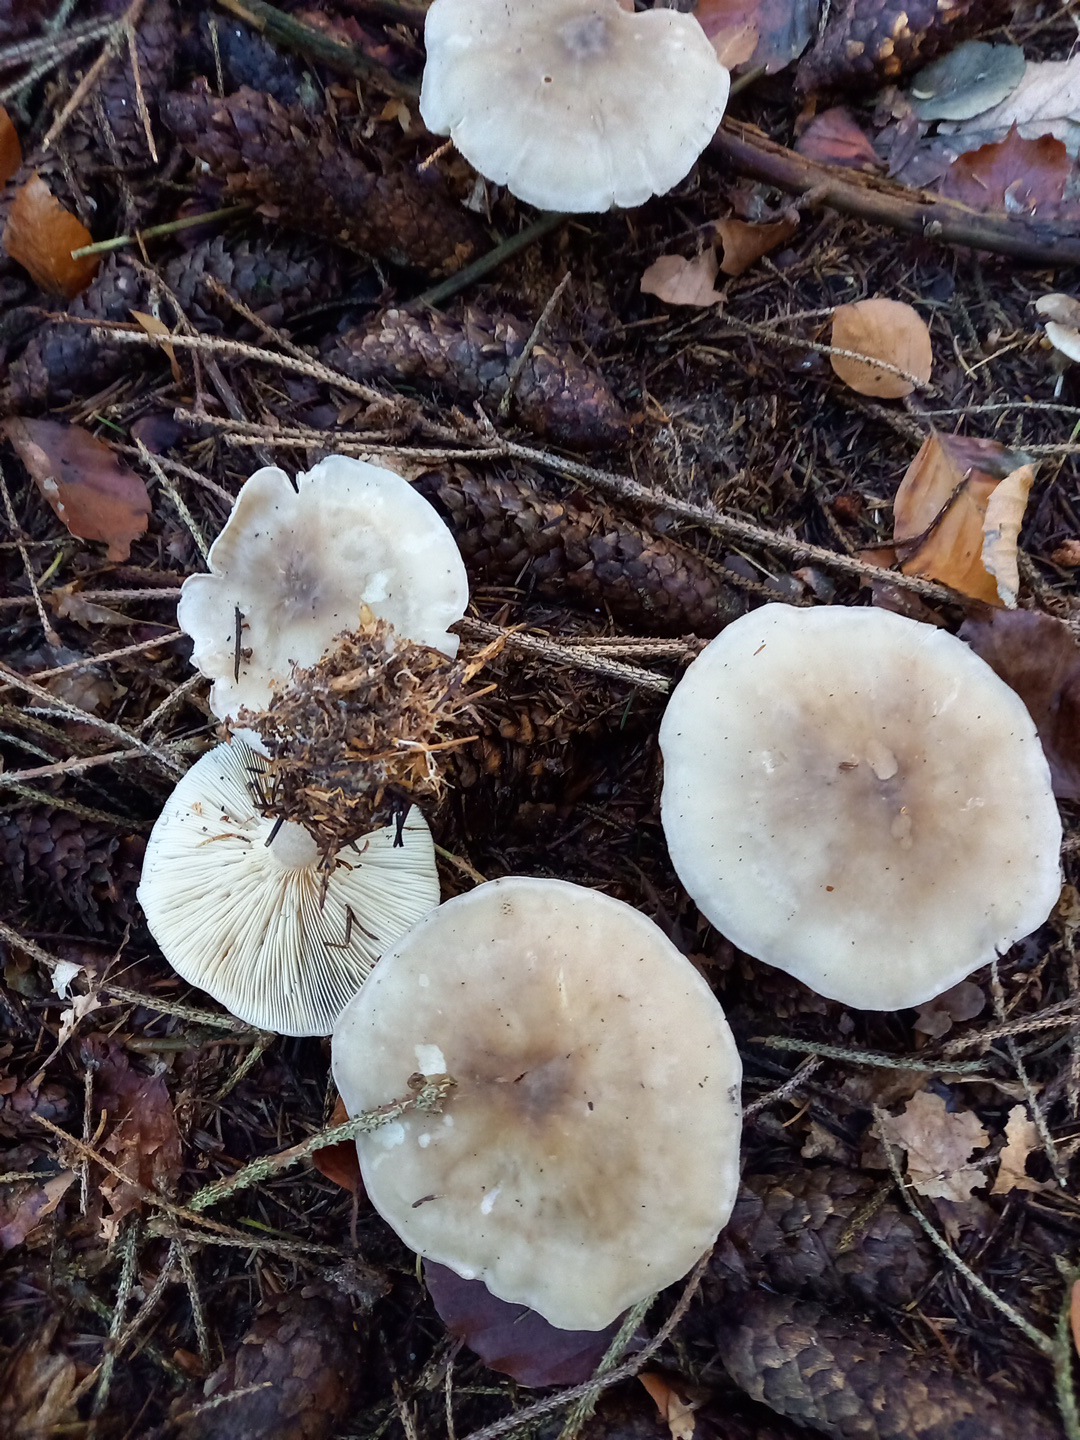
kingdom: Fungi
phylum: Basidiomycota
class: Agaricomycetes
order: Agaricales
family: Tricholomataceae
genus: Clitocybe
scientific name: Clitocybe nebularis
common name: tåge-tragthat
